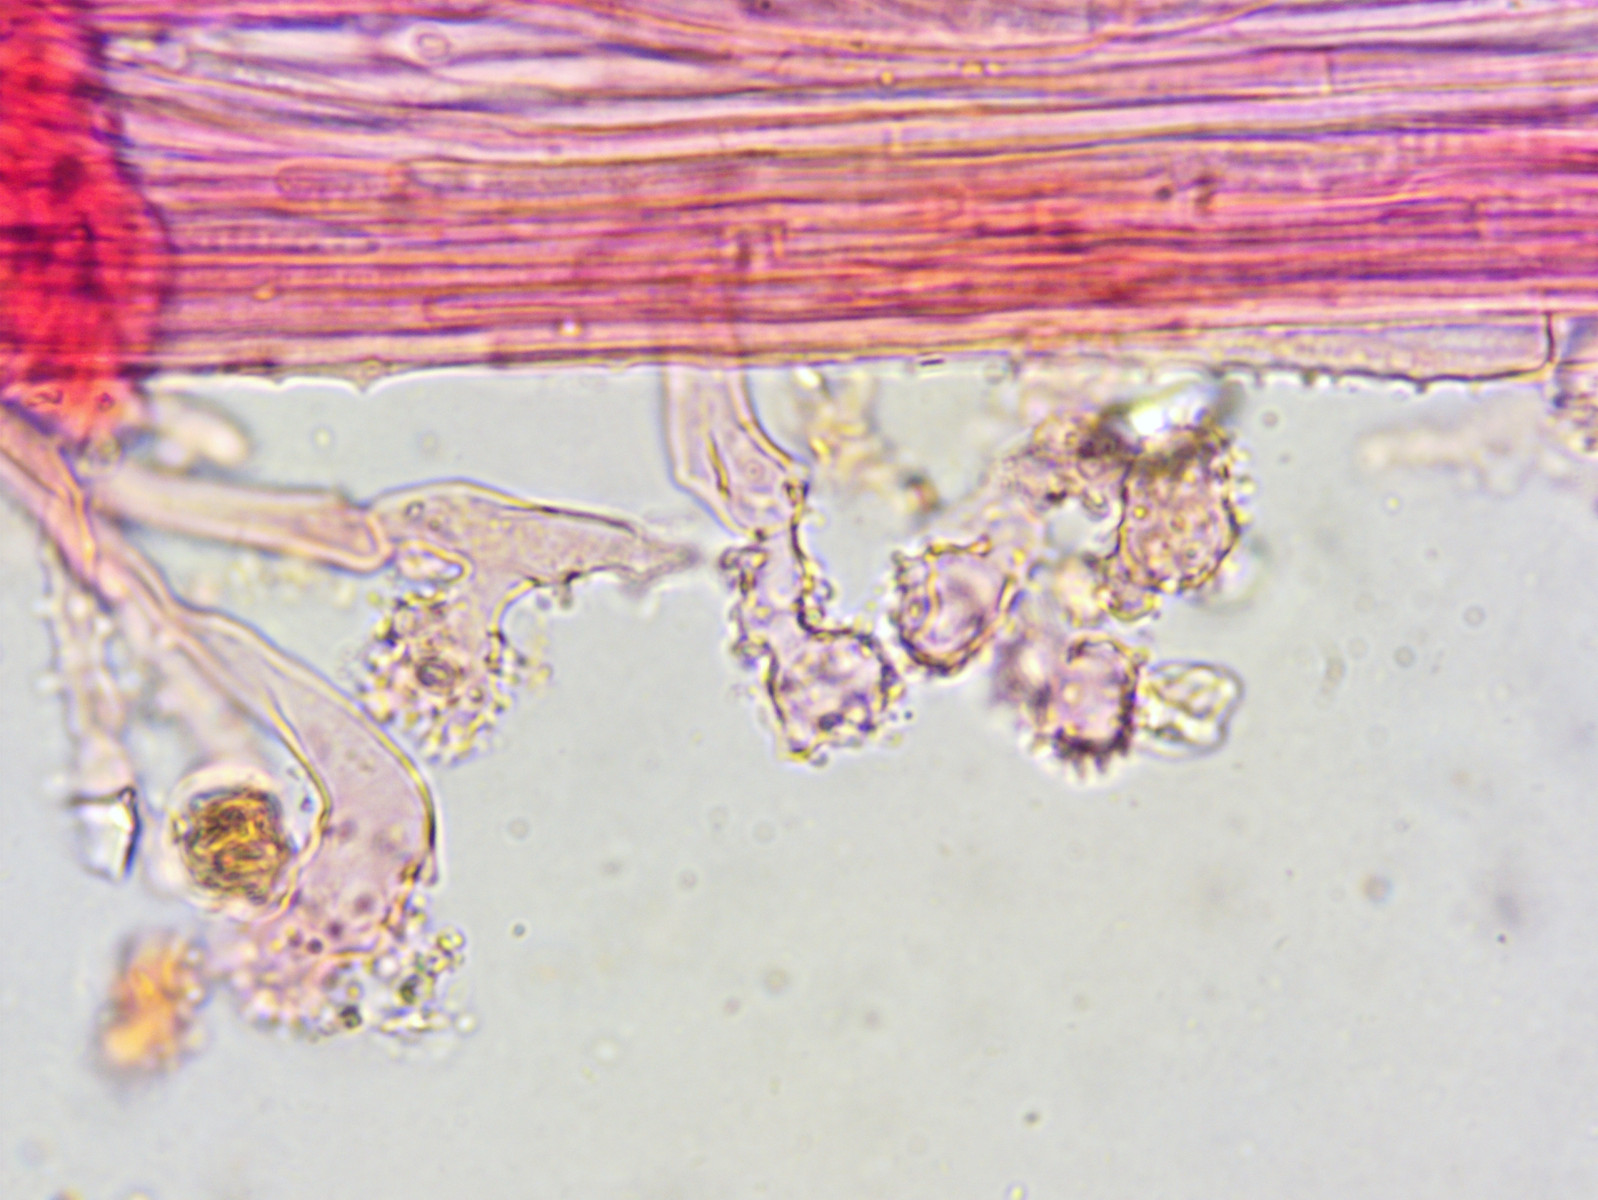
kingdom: Fungi
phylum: Basidiomycota
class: Agaricomycetes
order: Agaricales
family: Mycenaceae
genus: Mycena
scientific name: Mycena pseudocorticola
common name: gråblå bark-huesvamp
